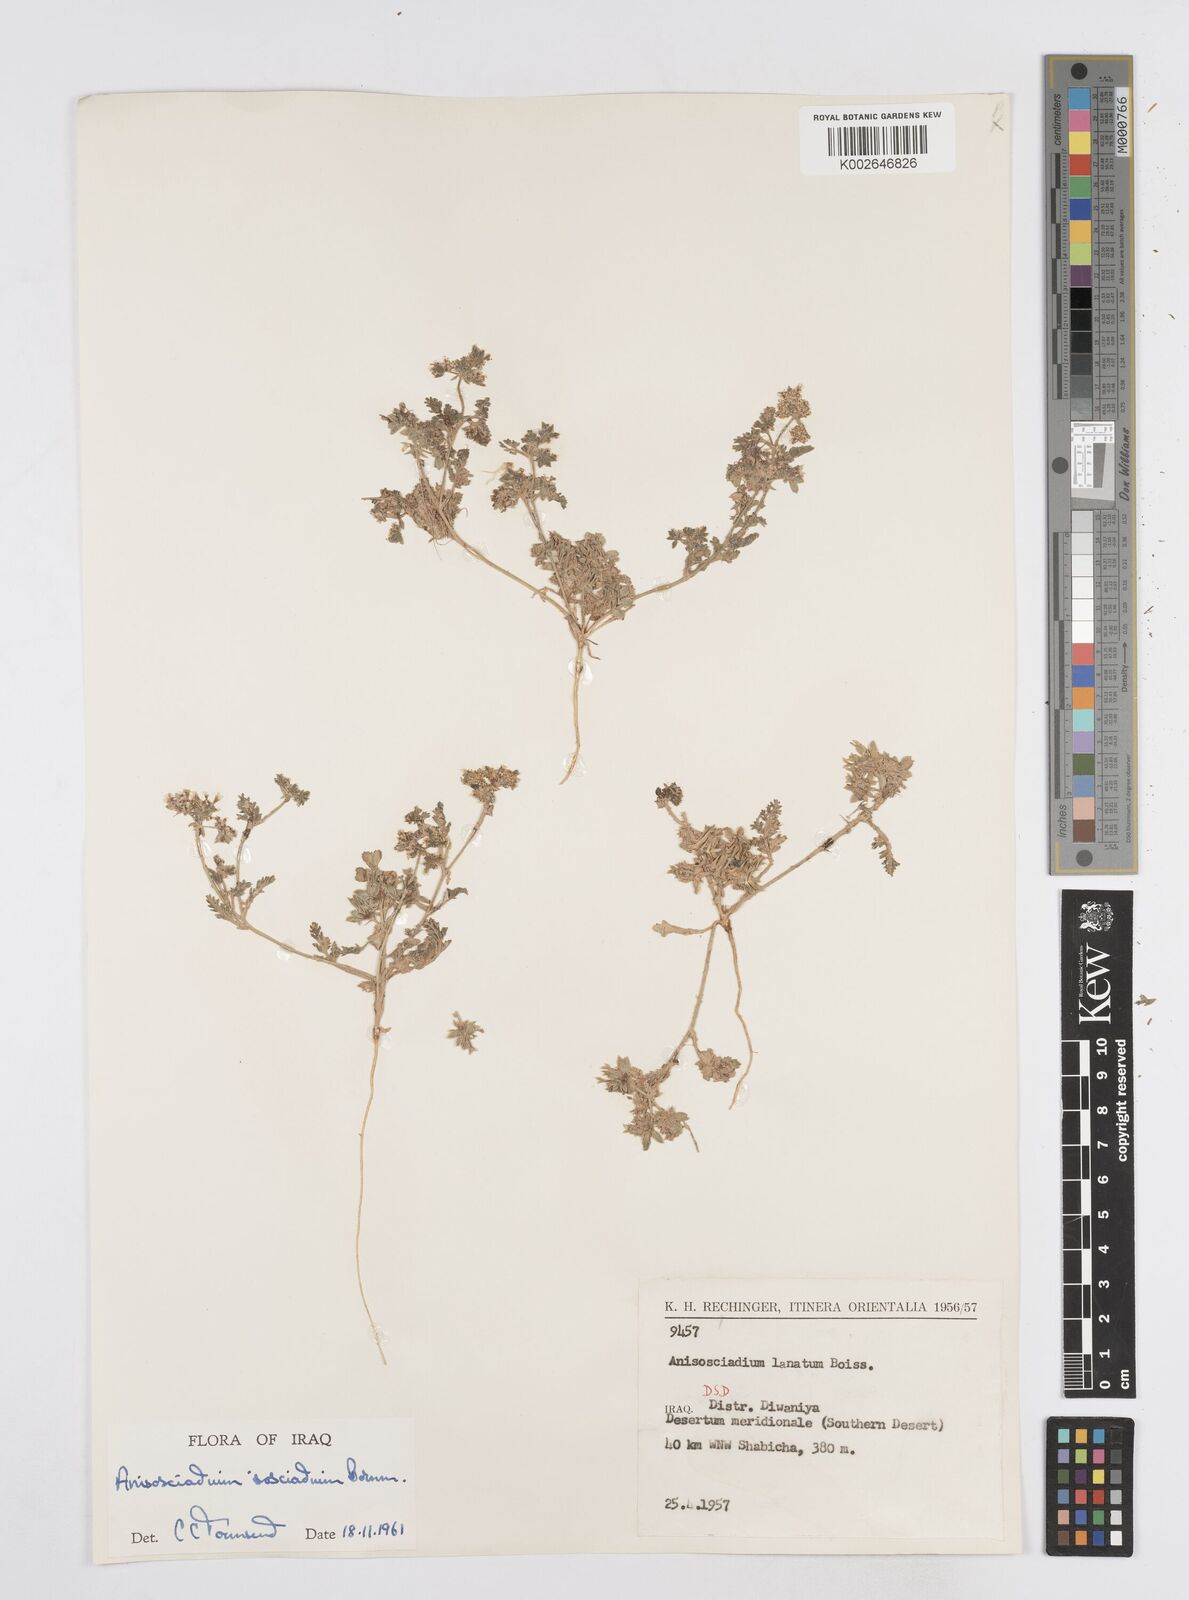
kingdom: Plantae
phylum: Tracheophyta
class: Magnoliopsida
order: Apiales
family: Apiaceae
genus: Anisosciadium
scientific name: Anisosciadium isosciadium
